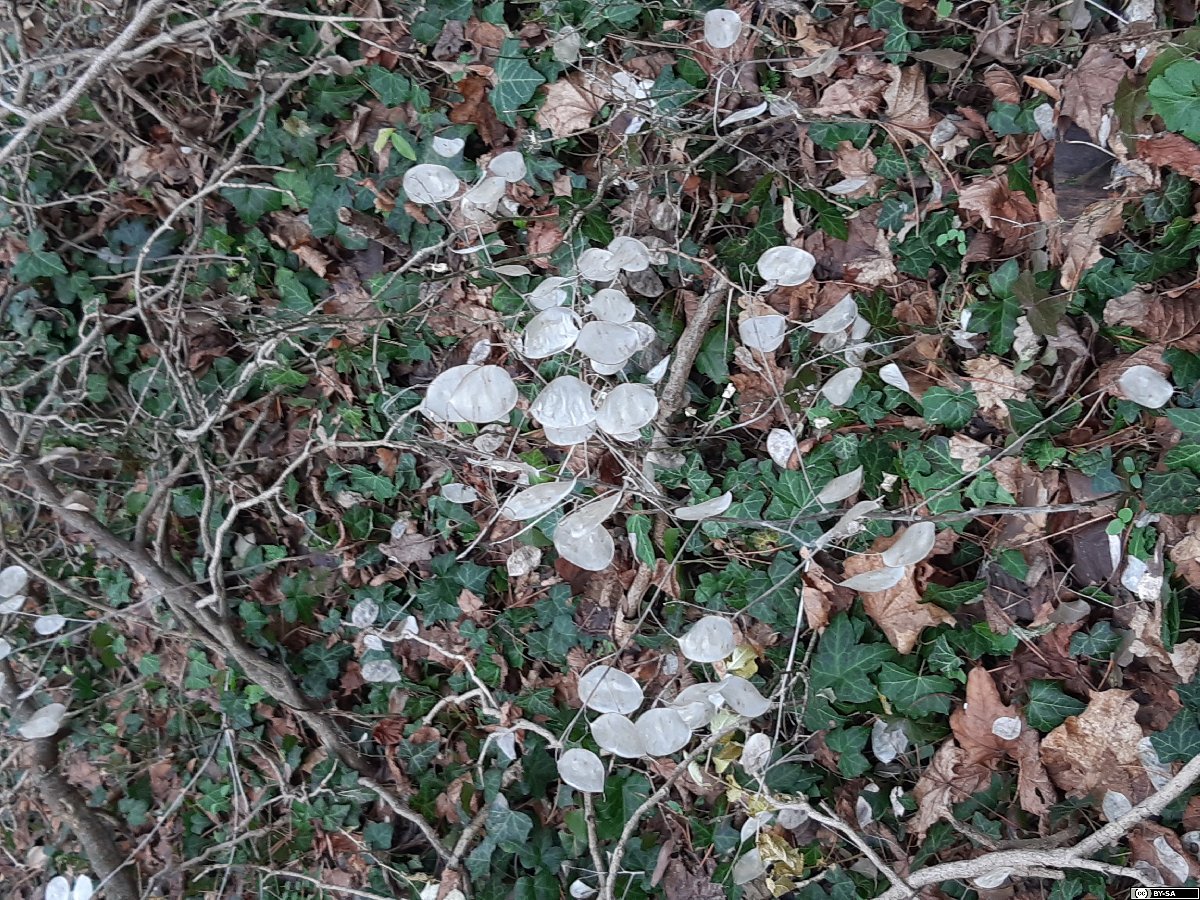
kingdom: Plantae
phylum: Tracheophyta
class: Magnoliopsida
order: Brassicales
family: Brassicaceae
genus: Lunaria
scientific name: Lunaria annua
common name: Honesty
